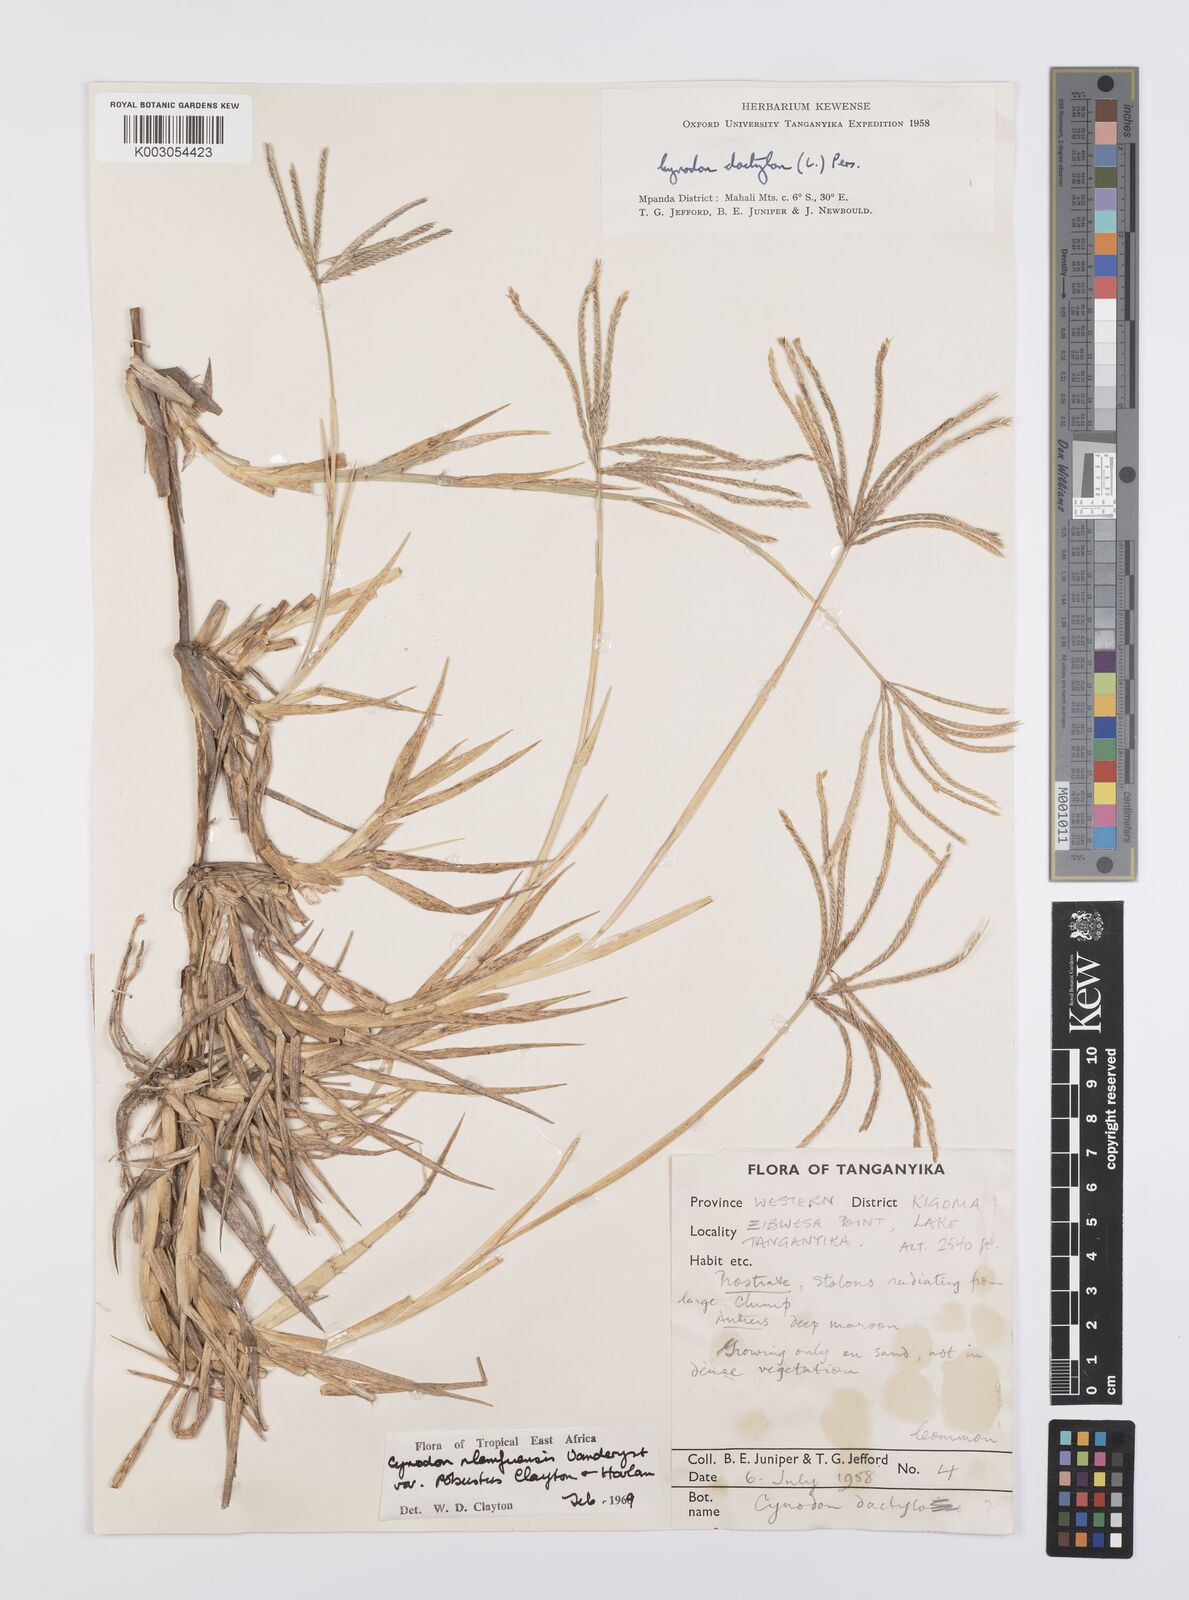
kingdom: Plantae
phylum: Tracheophyta
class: Liliopsida
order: Poales
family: Poaceae
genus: Cynodon
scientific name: Cynodon nlemfuensis
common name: African bermudagrass
